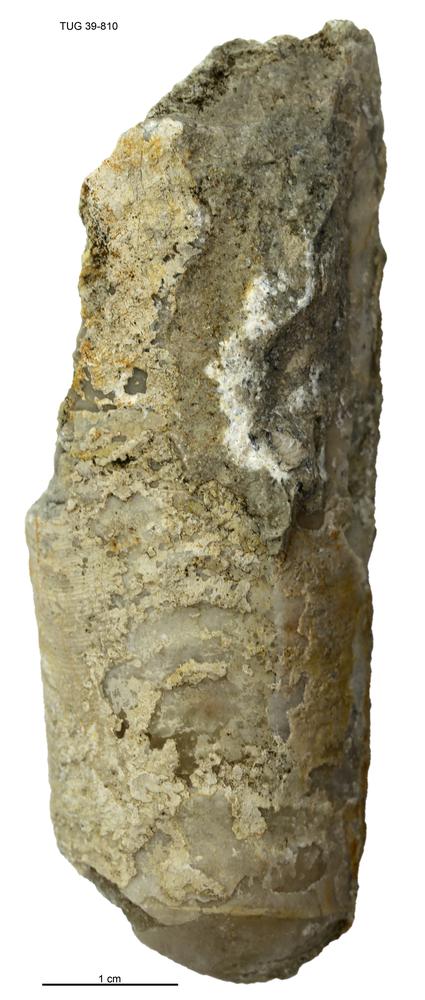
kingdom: Animalia
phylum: Mollusca
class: Cephalopoda
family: Lituitidae
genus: Lituites
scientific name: Lituites lituus
